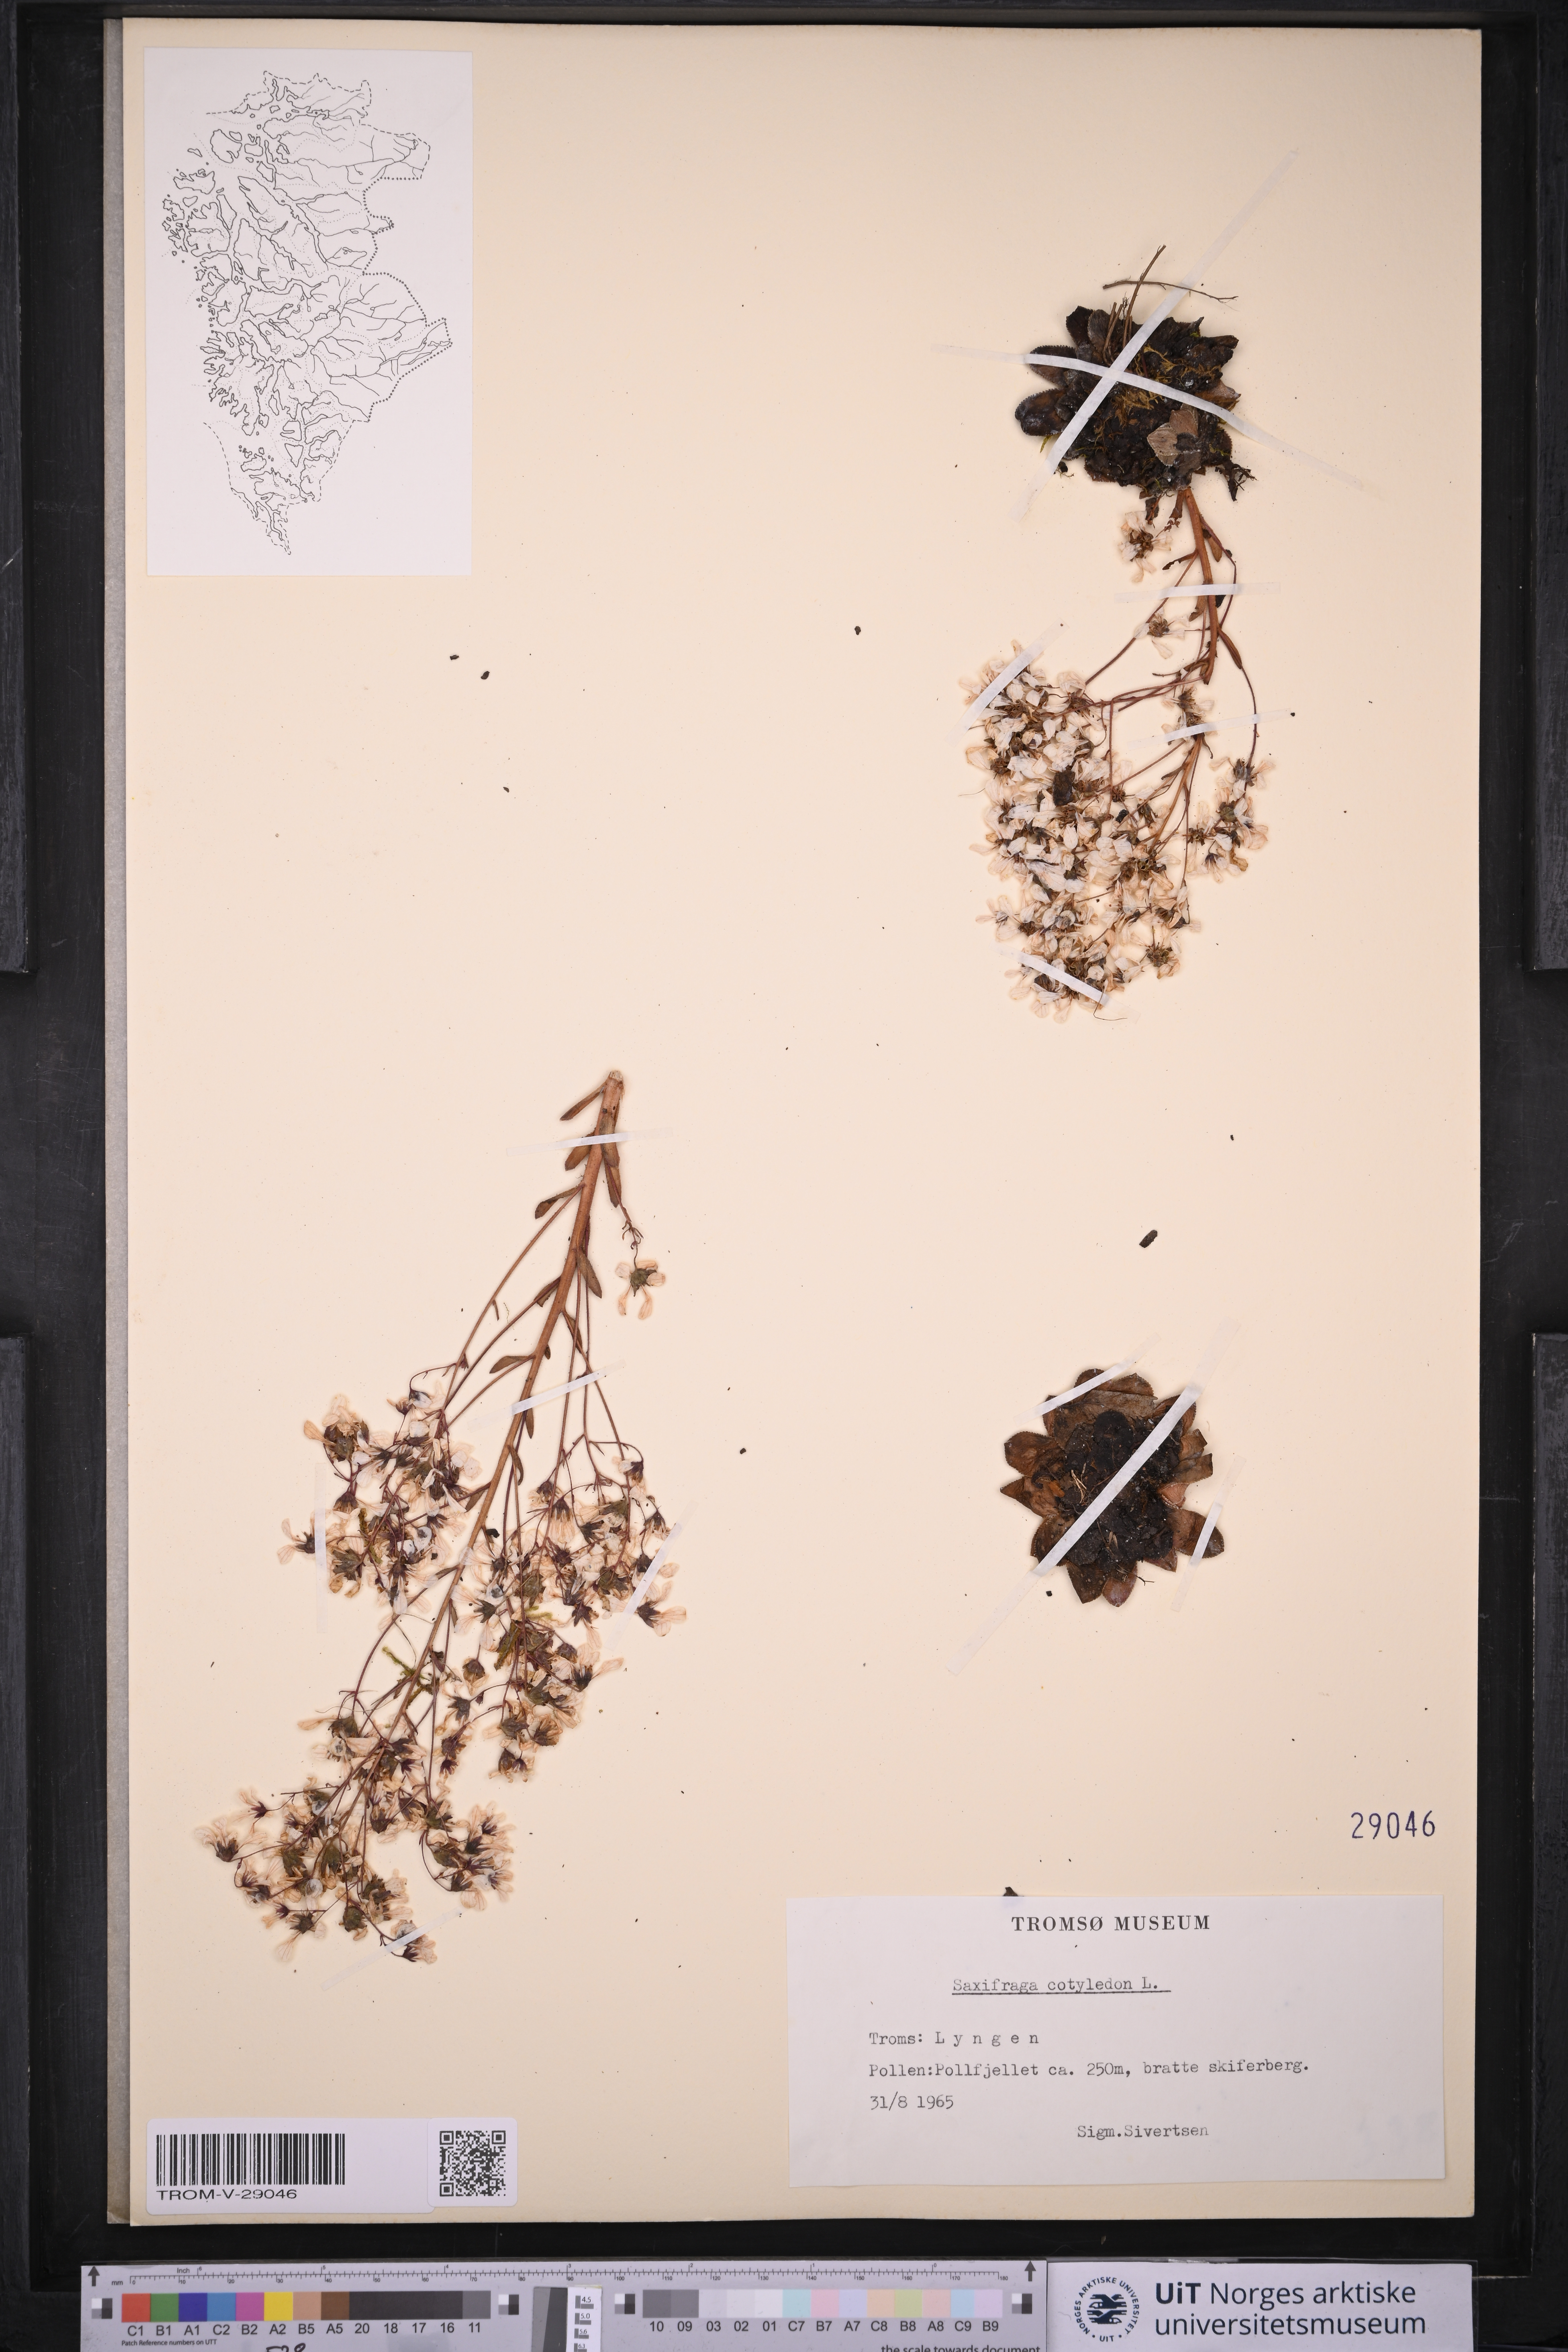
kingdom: Plantae
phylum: Tracheophyta
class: Magnoliopsida
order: Saxifragales
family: Saxifragaceae
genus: Saxifraga
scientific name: Saxifraga cotyledon
